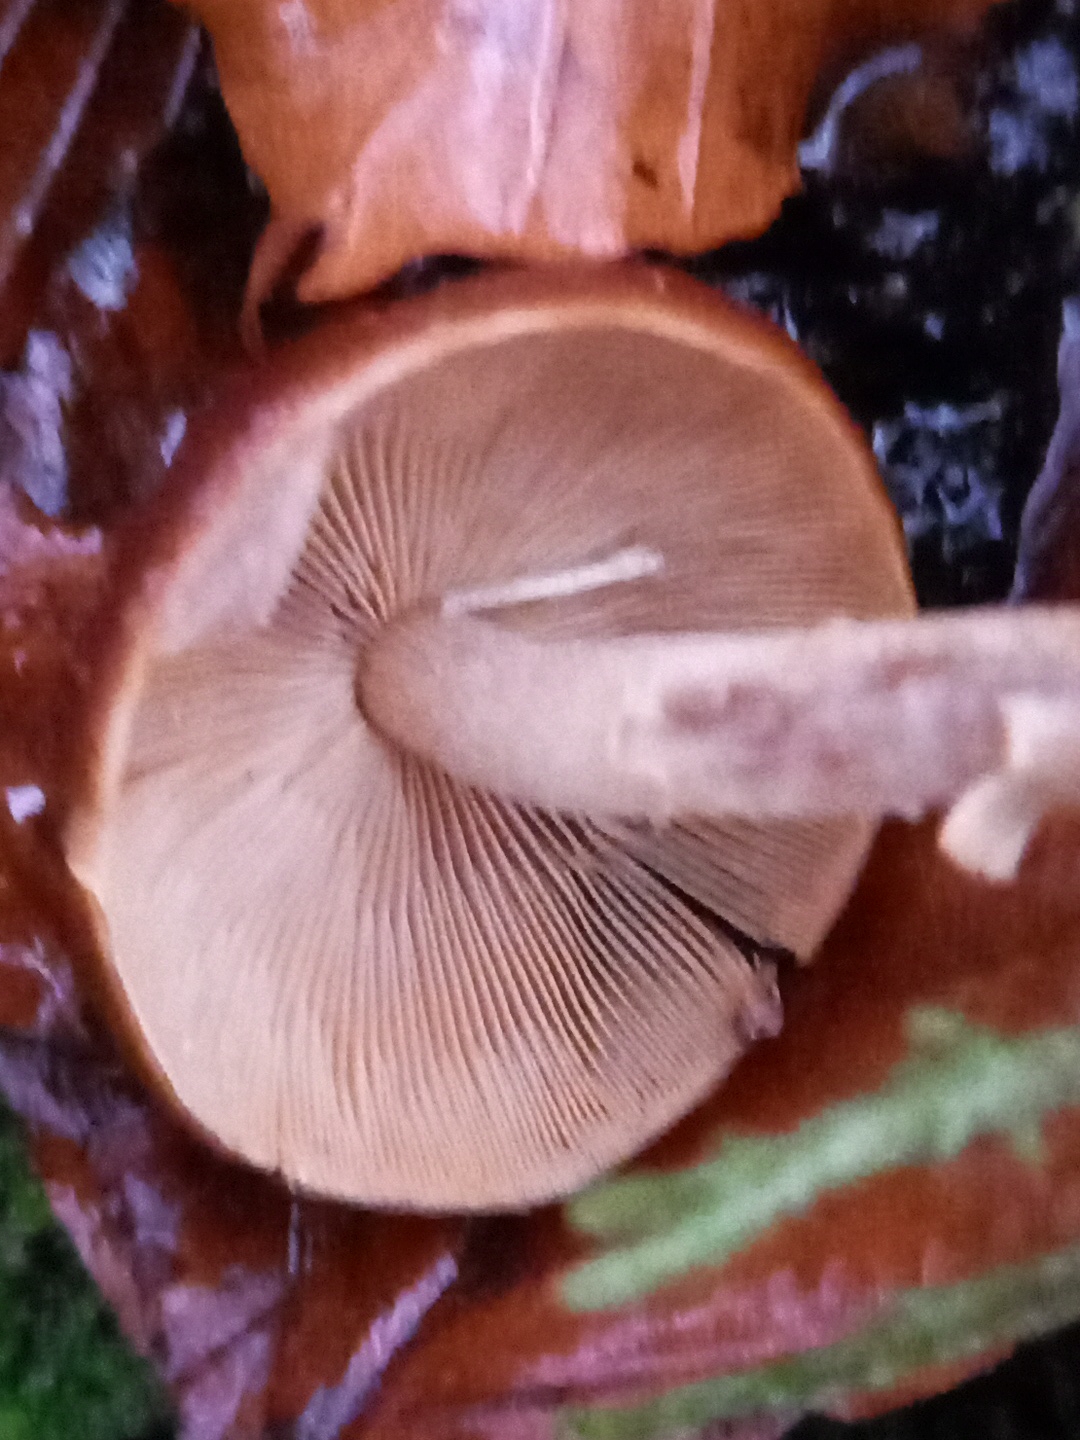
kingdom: Fungi
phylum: Basidiomycota
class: Agaricomycetes
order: Agaricales
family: Psathyrellaceae
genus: Psathyrella
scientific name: Psathyrella piluliformis
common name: lysstokket mørkhat
